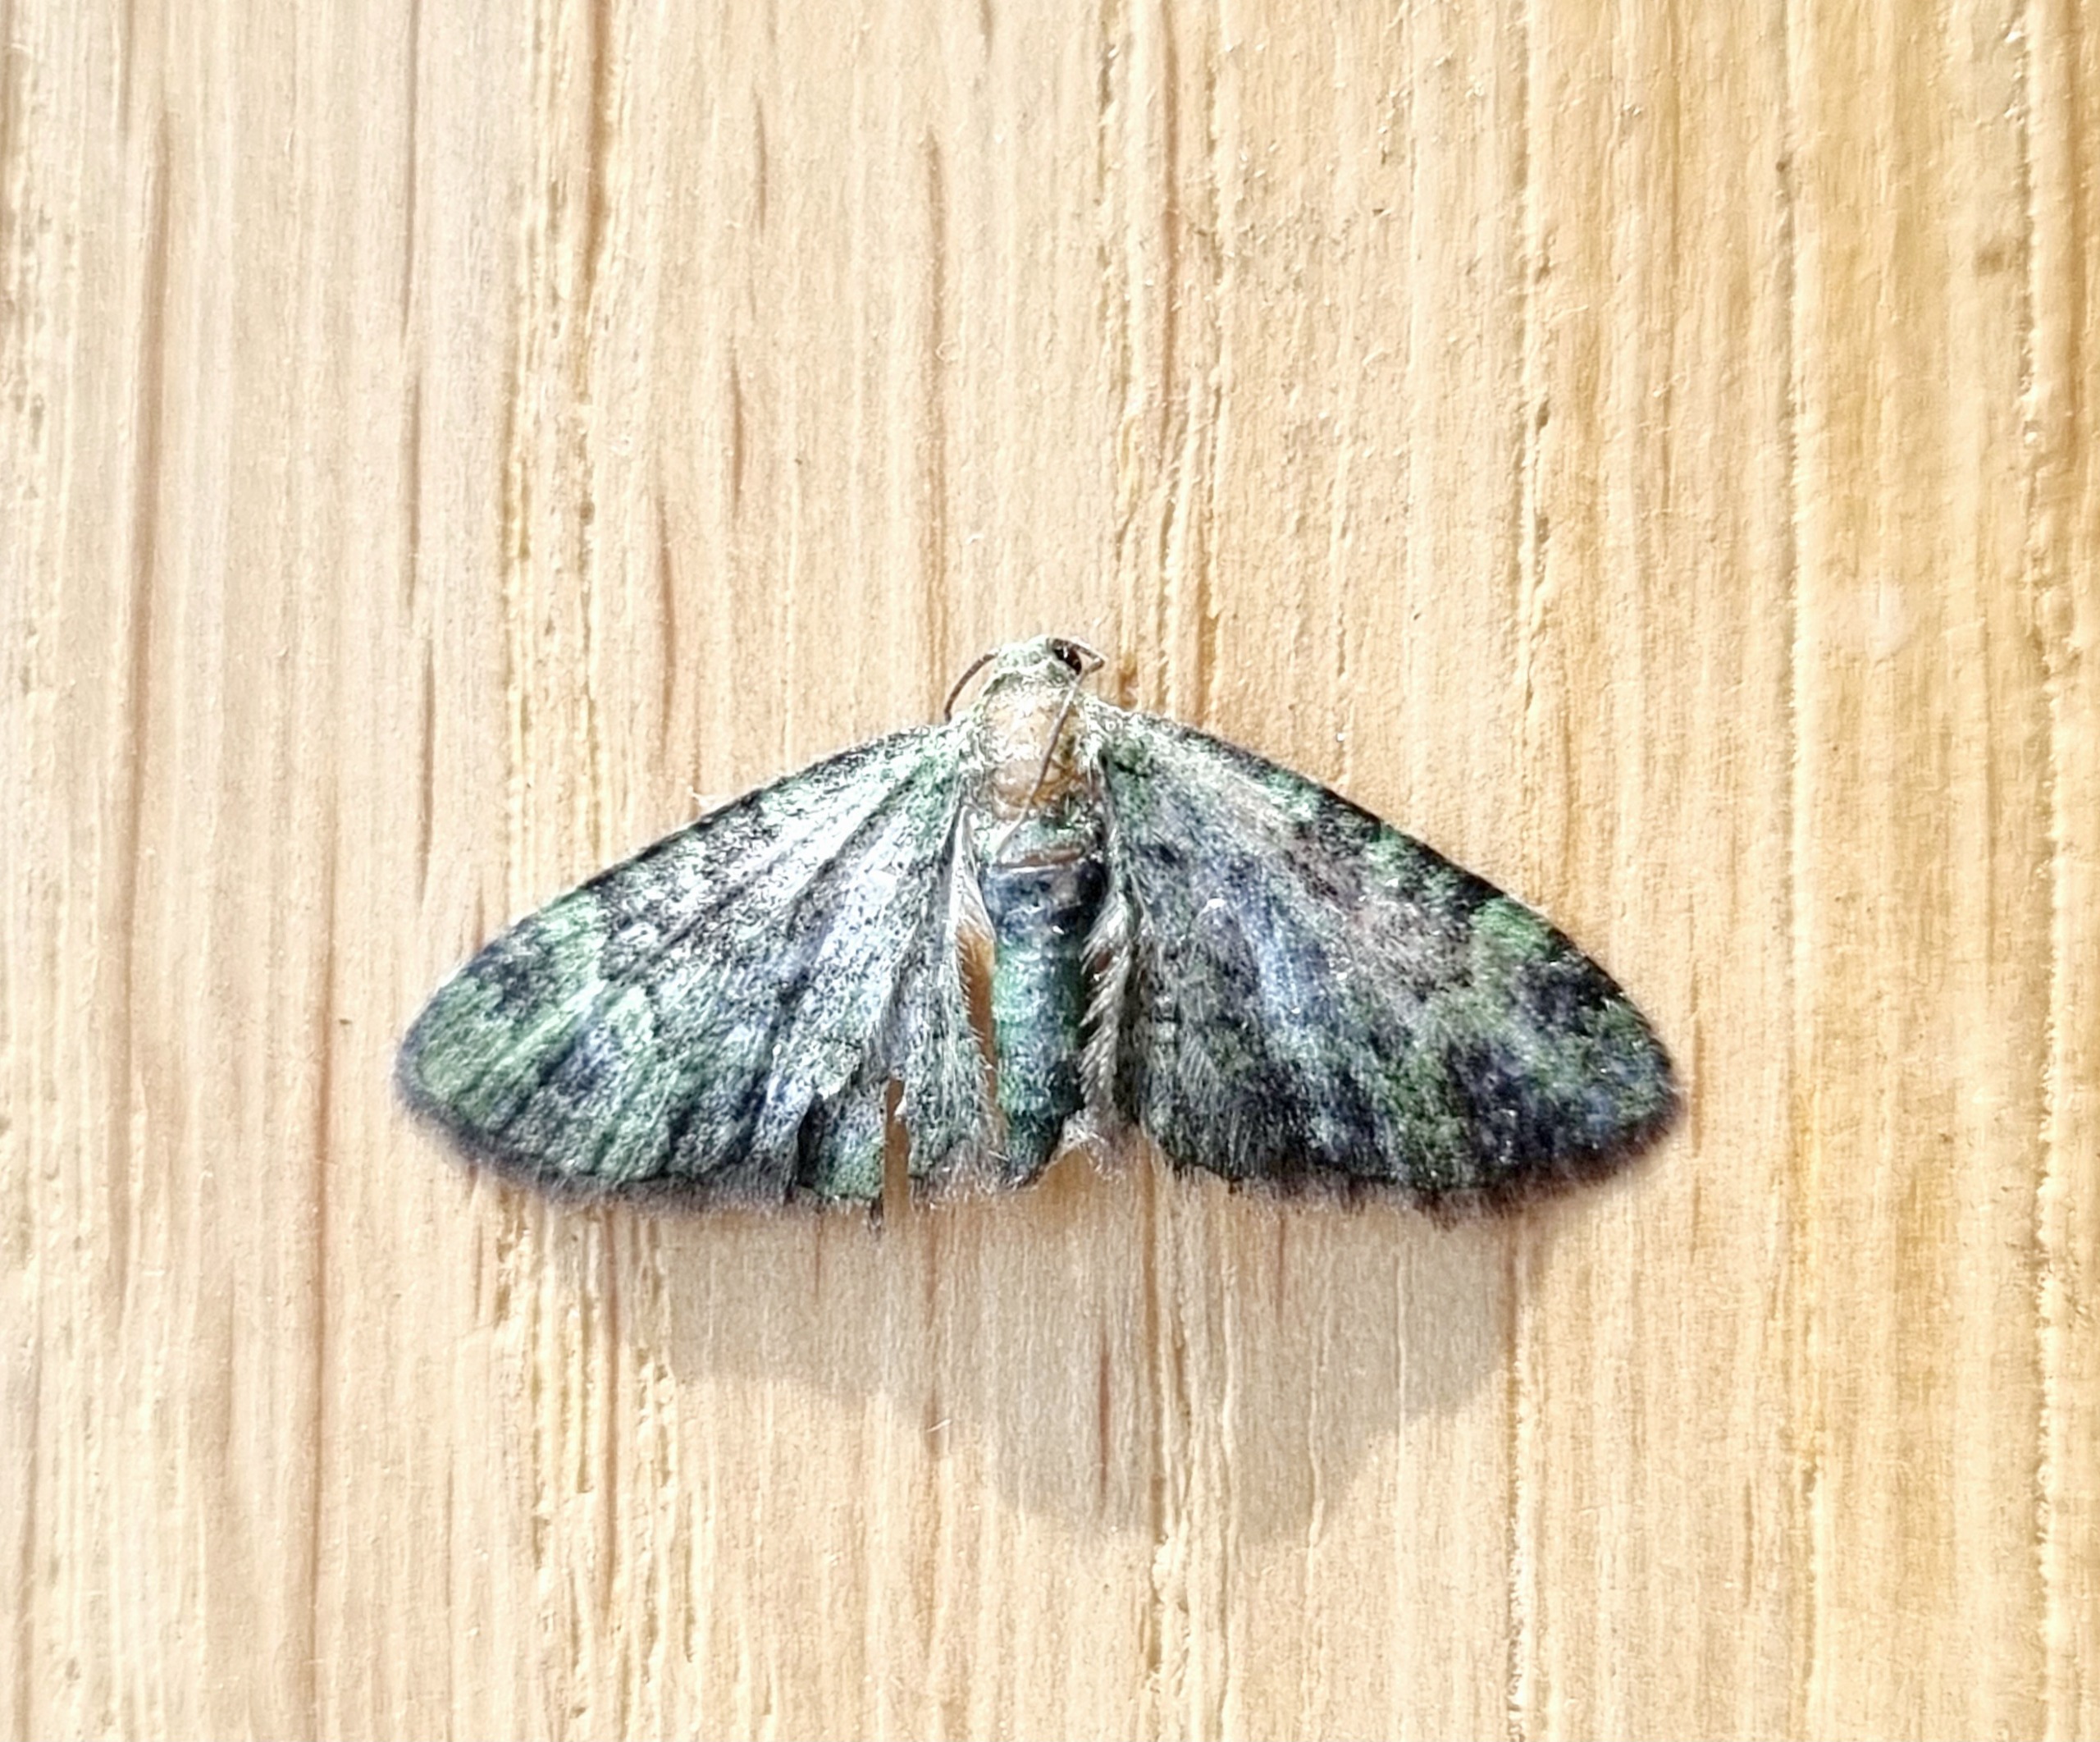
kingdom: Animalia
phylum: Arthropoda
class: Insecta
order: Lepidoptera
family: Geometridae
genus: Pasiphila
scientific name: Pasiphila rectangulata
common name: Grøn dværgmåler
